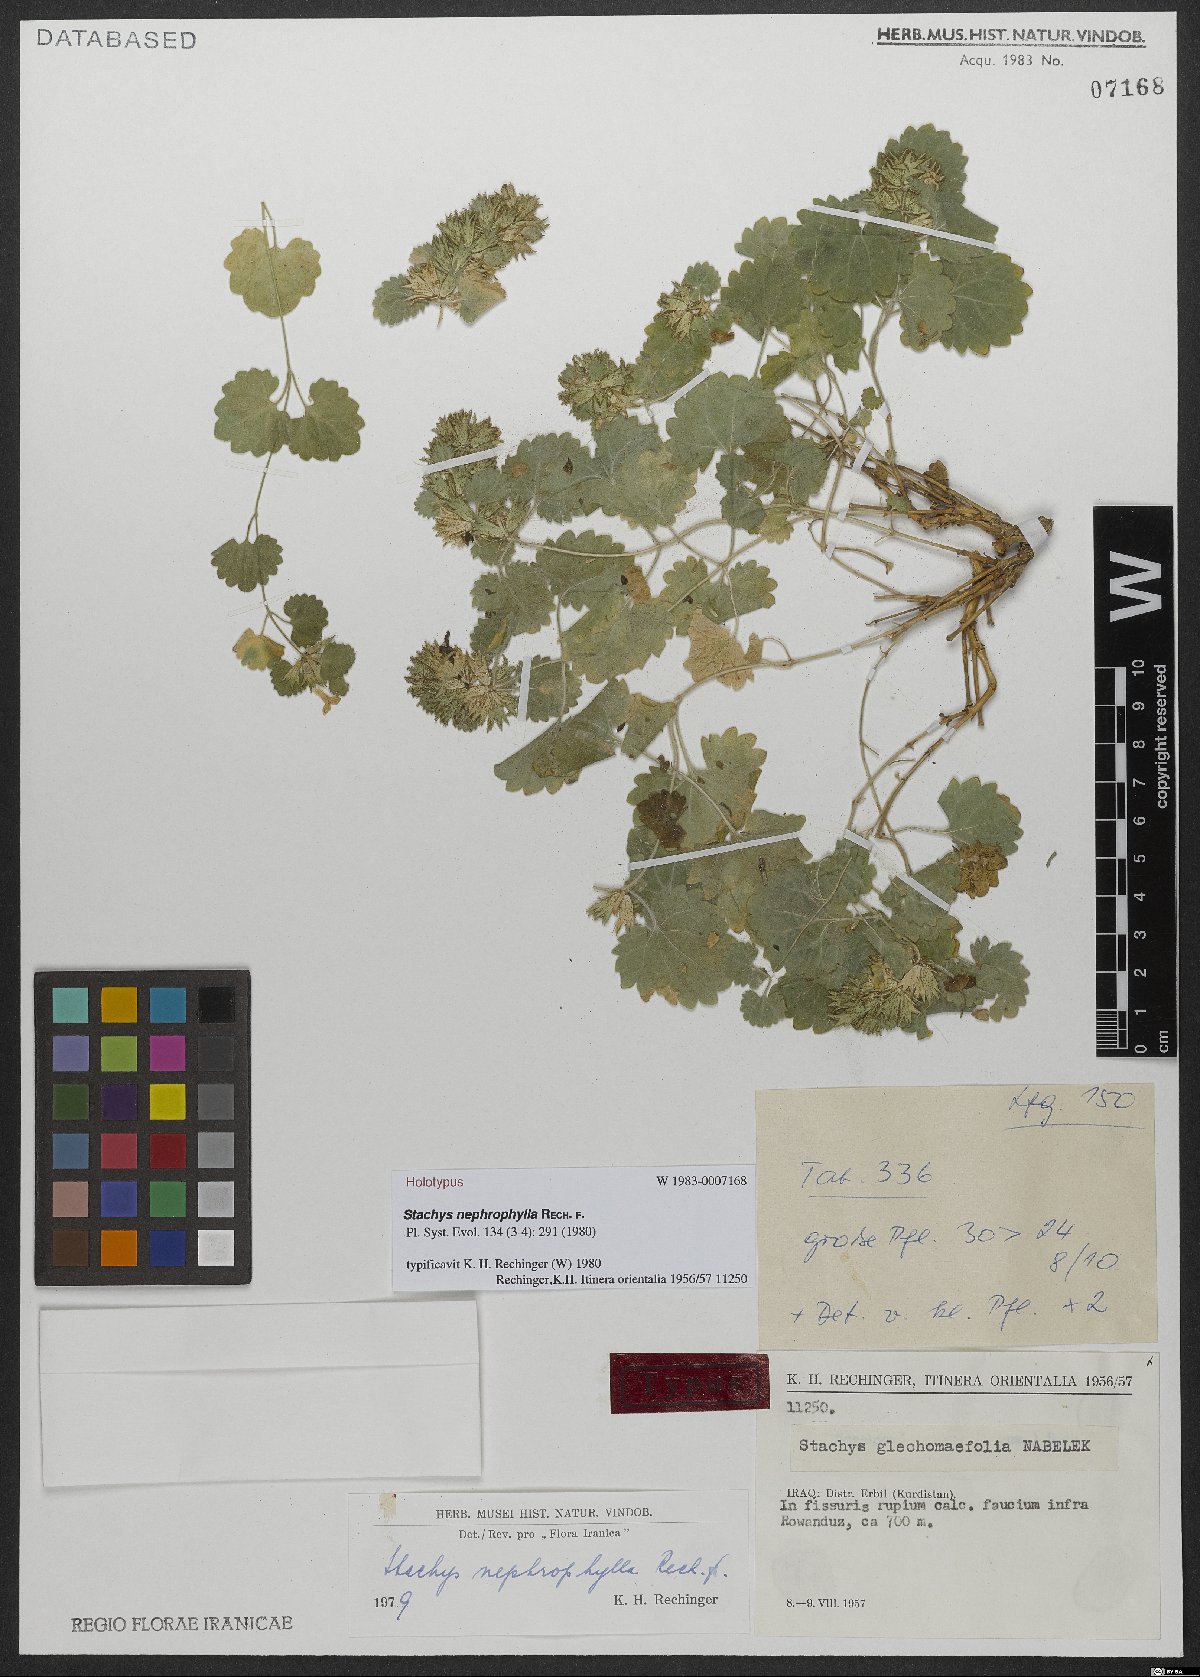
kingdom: Plantae
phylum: Tracheophyta
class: Magnoliopsida
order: Lamiales
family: Lamiaceae
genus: Stachys
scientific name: Stachys nephrophylla
